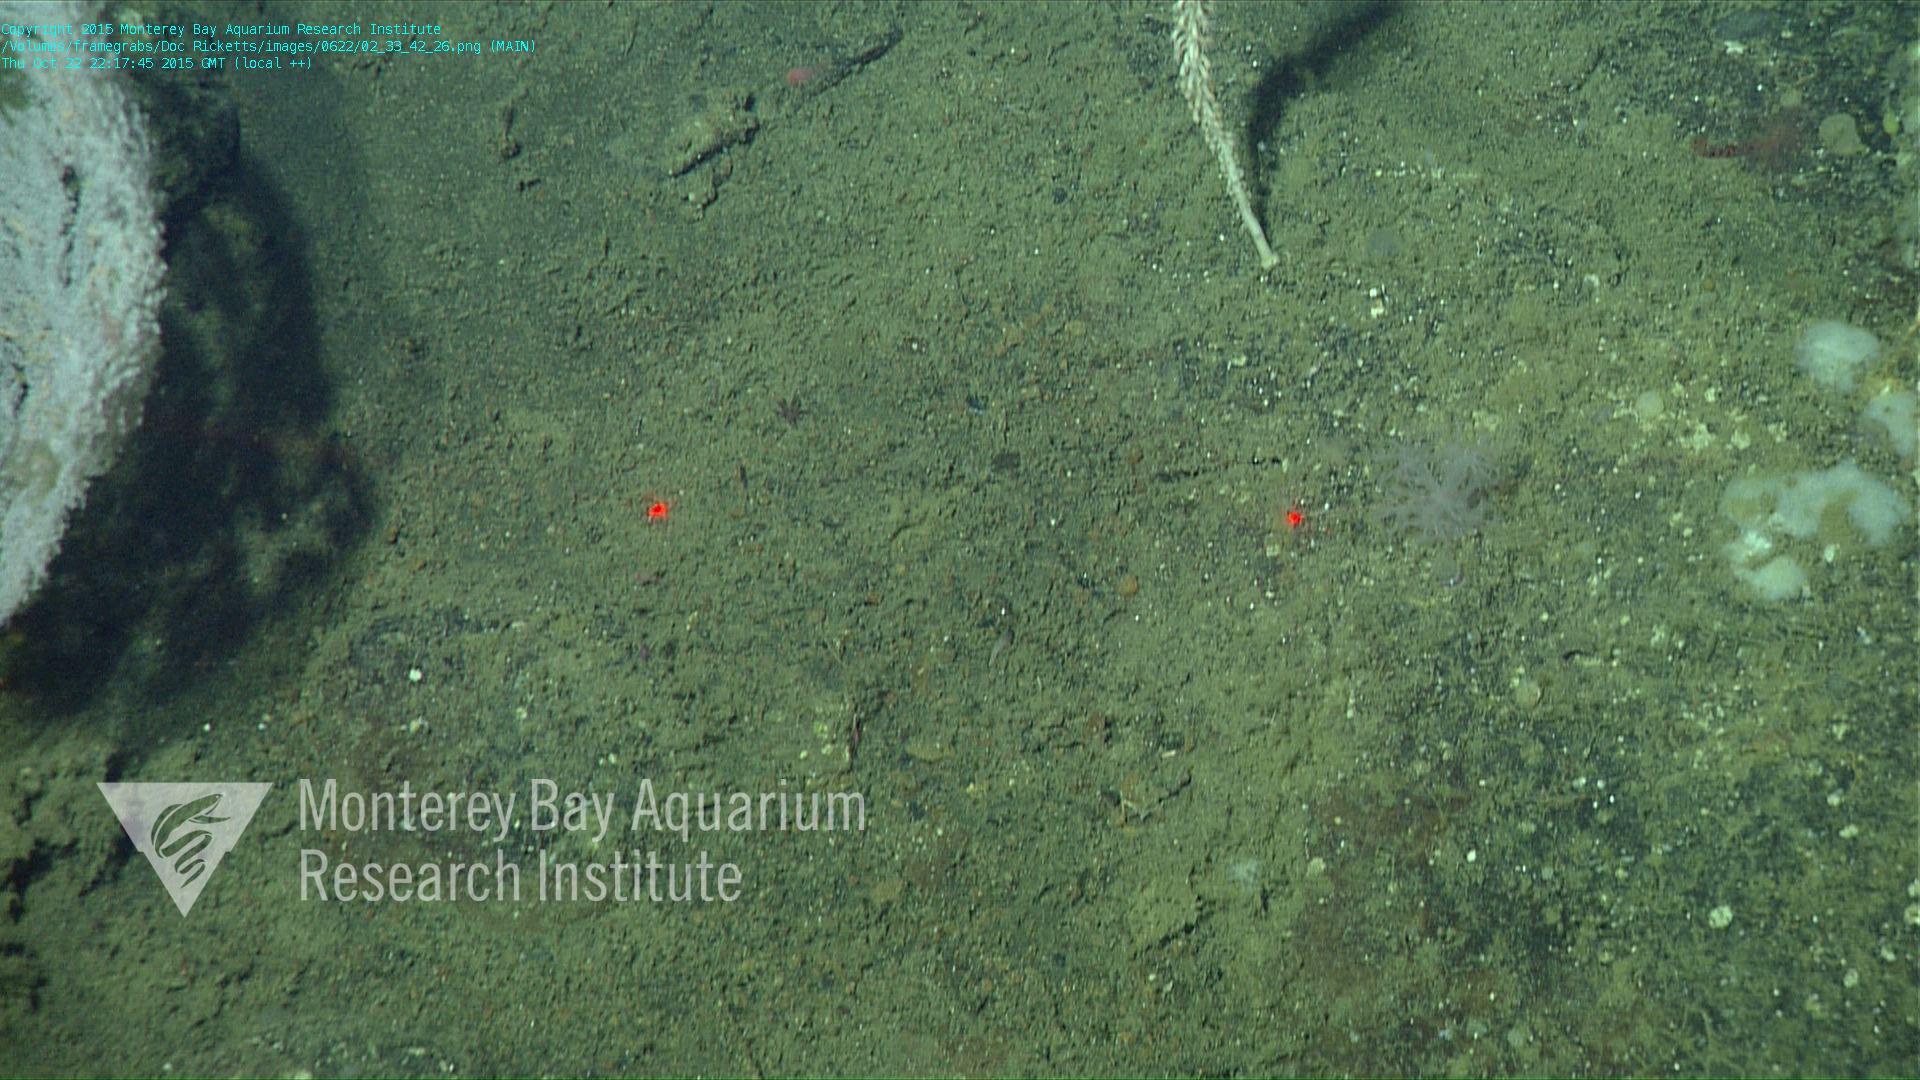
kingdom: Animalia
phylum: Cnidaria
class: Anthozoa
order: Malacalcyonacea
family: Alcyoniidae
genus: Gersemia
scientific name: Gersemia juliepackardae
